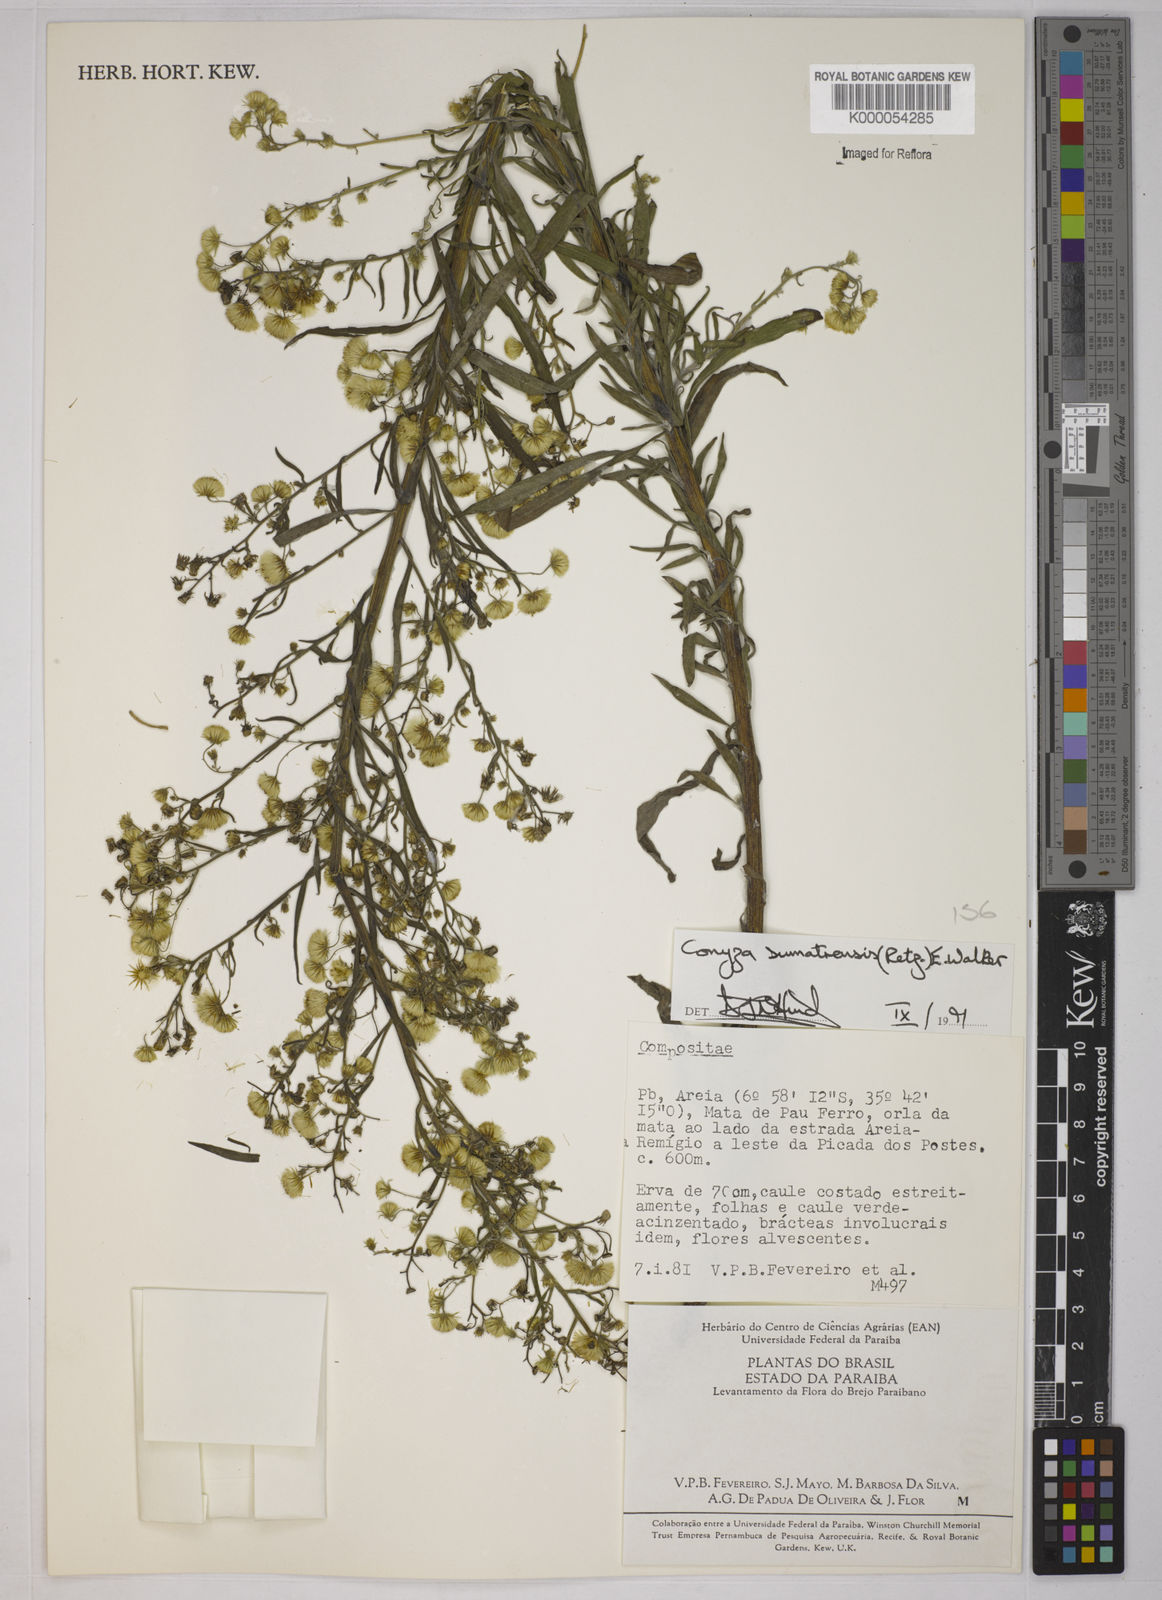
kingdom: Plantae
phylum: Tracheophyta
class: Magnoliopsida
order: Asterales
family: Asteraceae
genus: Erigeron
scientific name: Erigeron sumatrensis
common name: Daisy
